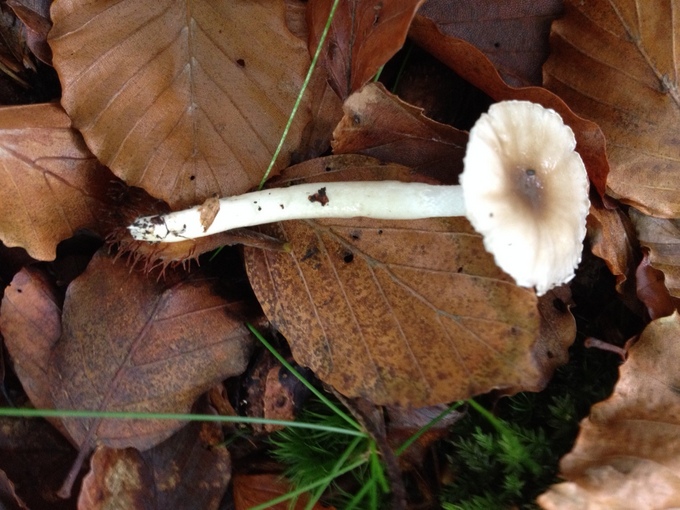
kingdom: Fungi
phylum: Basidiomycota
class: Agaricomycetes
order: Agaricales
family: Hygrophoraceae
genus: Hygrophorus
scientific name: Hygrophorus mesotephrus
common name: askegrå sneglehat
